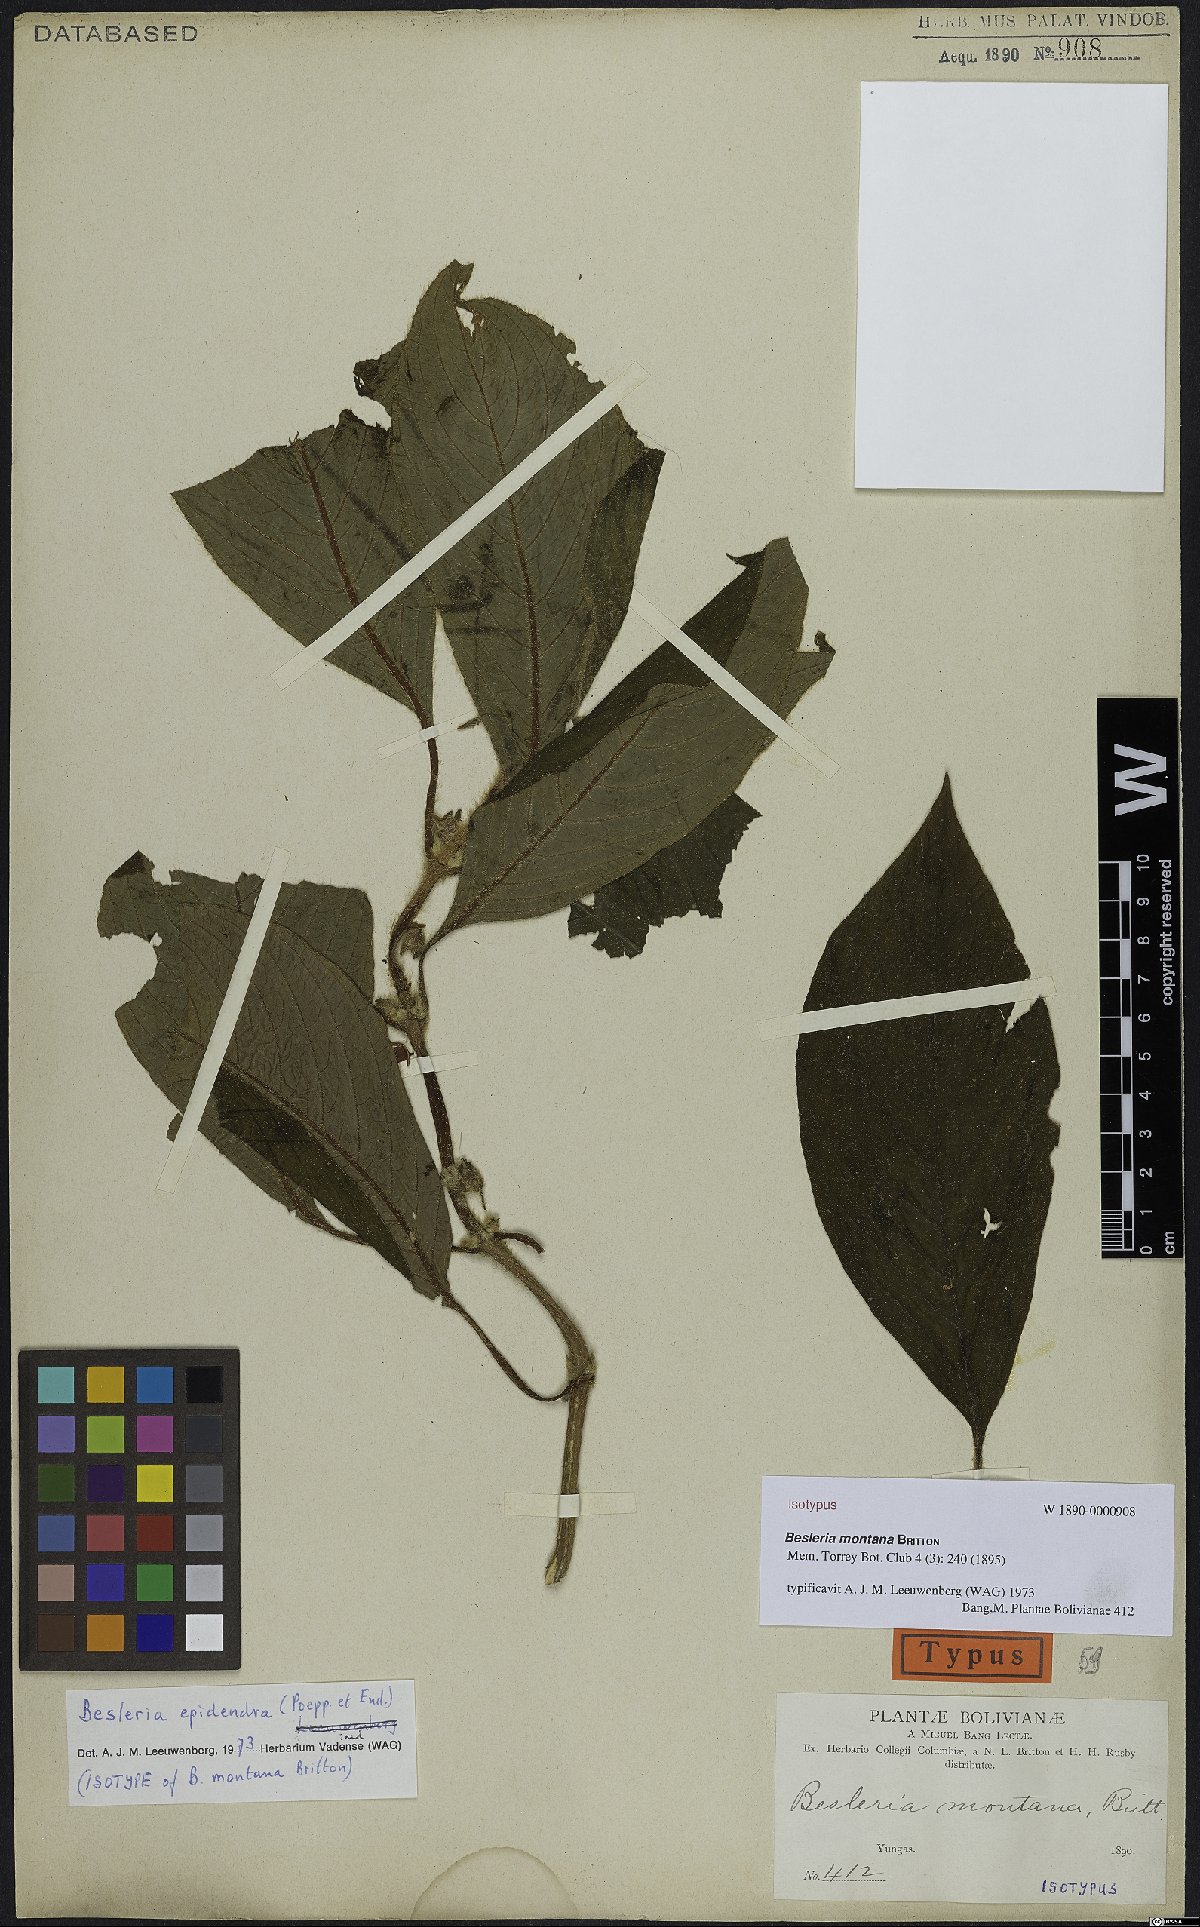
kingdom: Plantae
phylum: Tracheophyta
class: Magnoliopsida
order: Lamiales
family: Gesneriaceae
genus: Besleria
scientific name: Besleria montana
